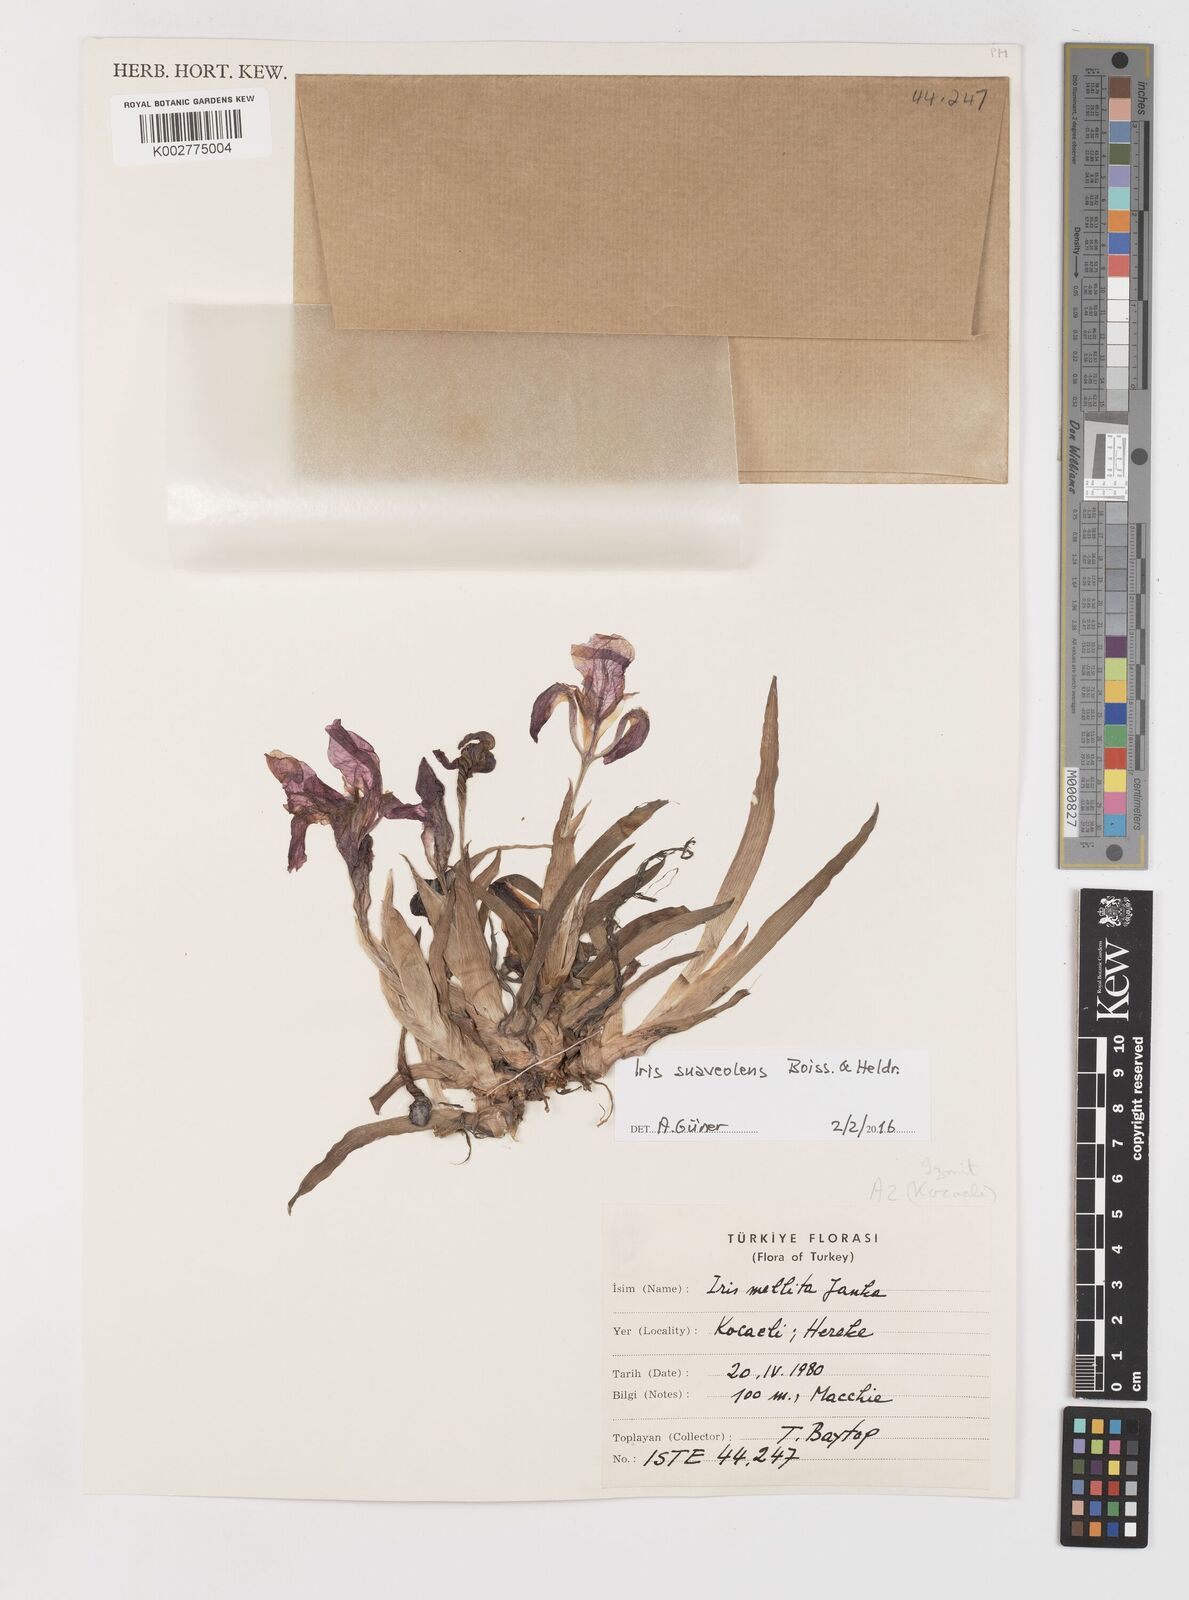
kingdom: Plantae
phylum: Tracheophyta
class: Liliopsida
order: Asparagales
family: Iridaceae
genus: Iris
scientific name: Iris suaveolens
